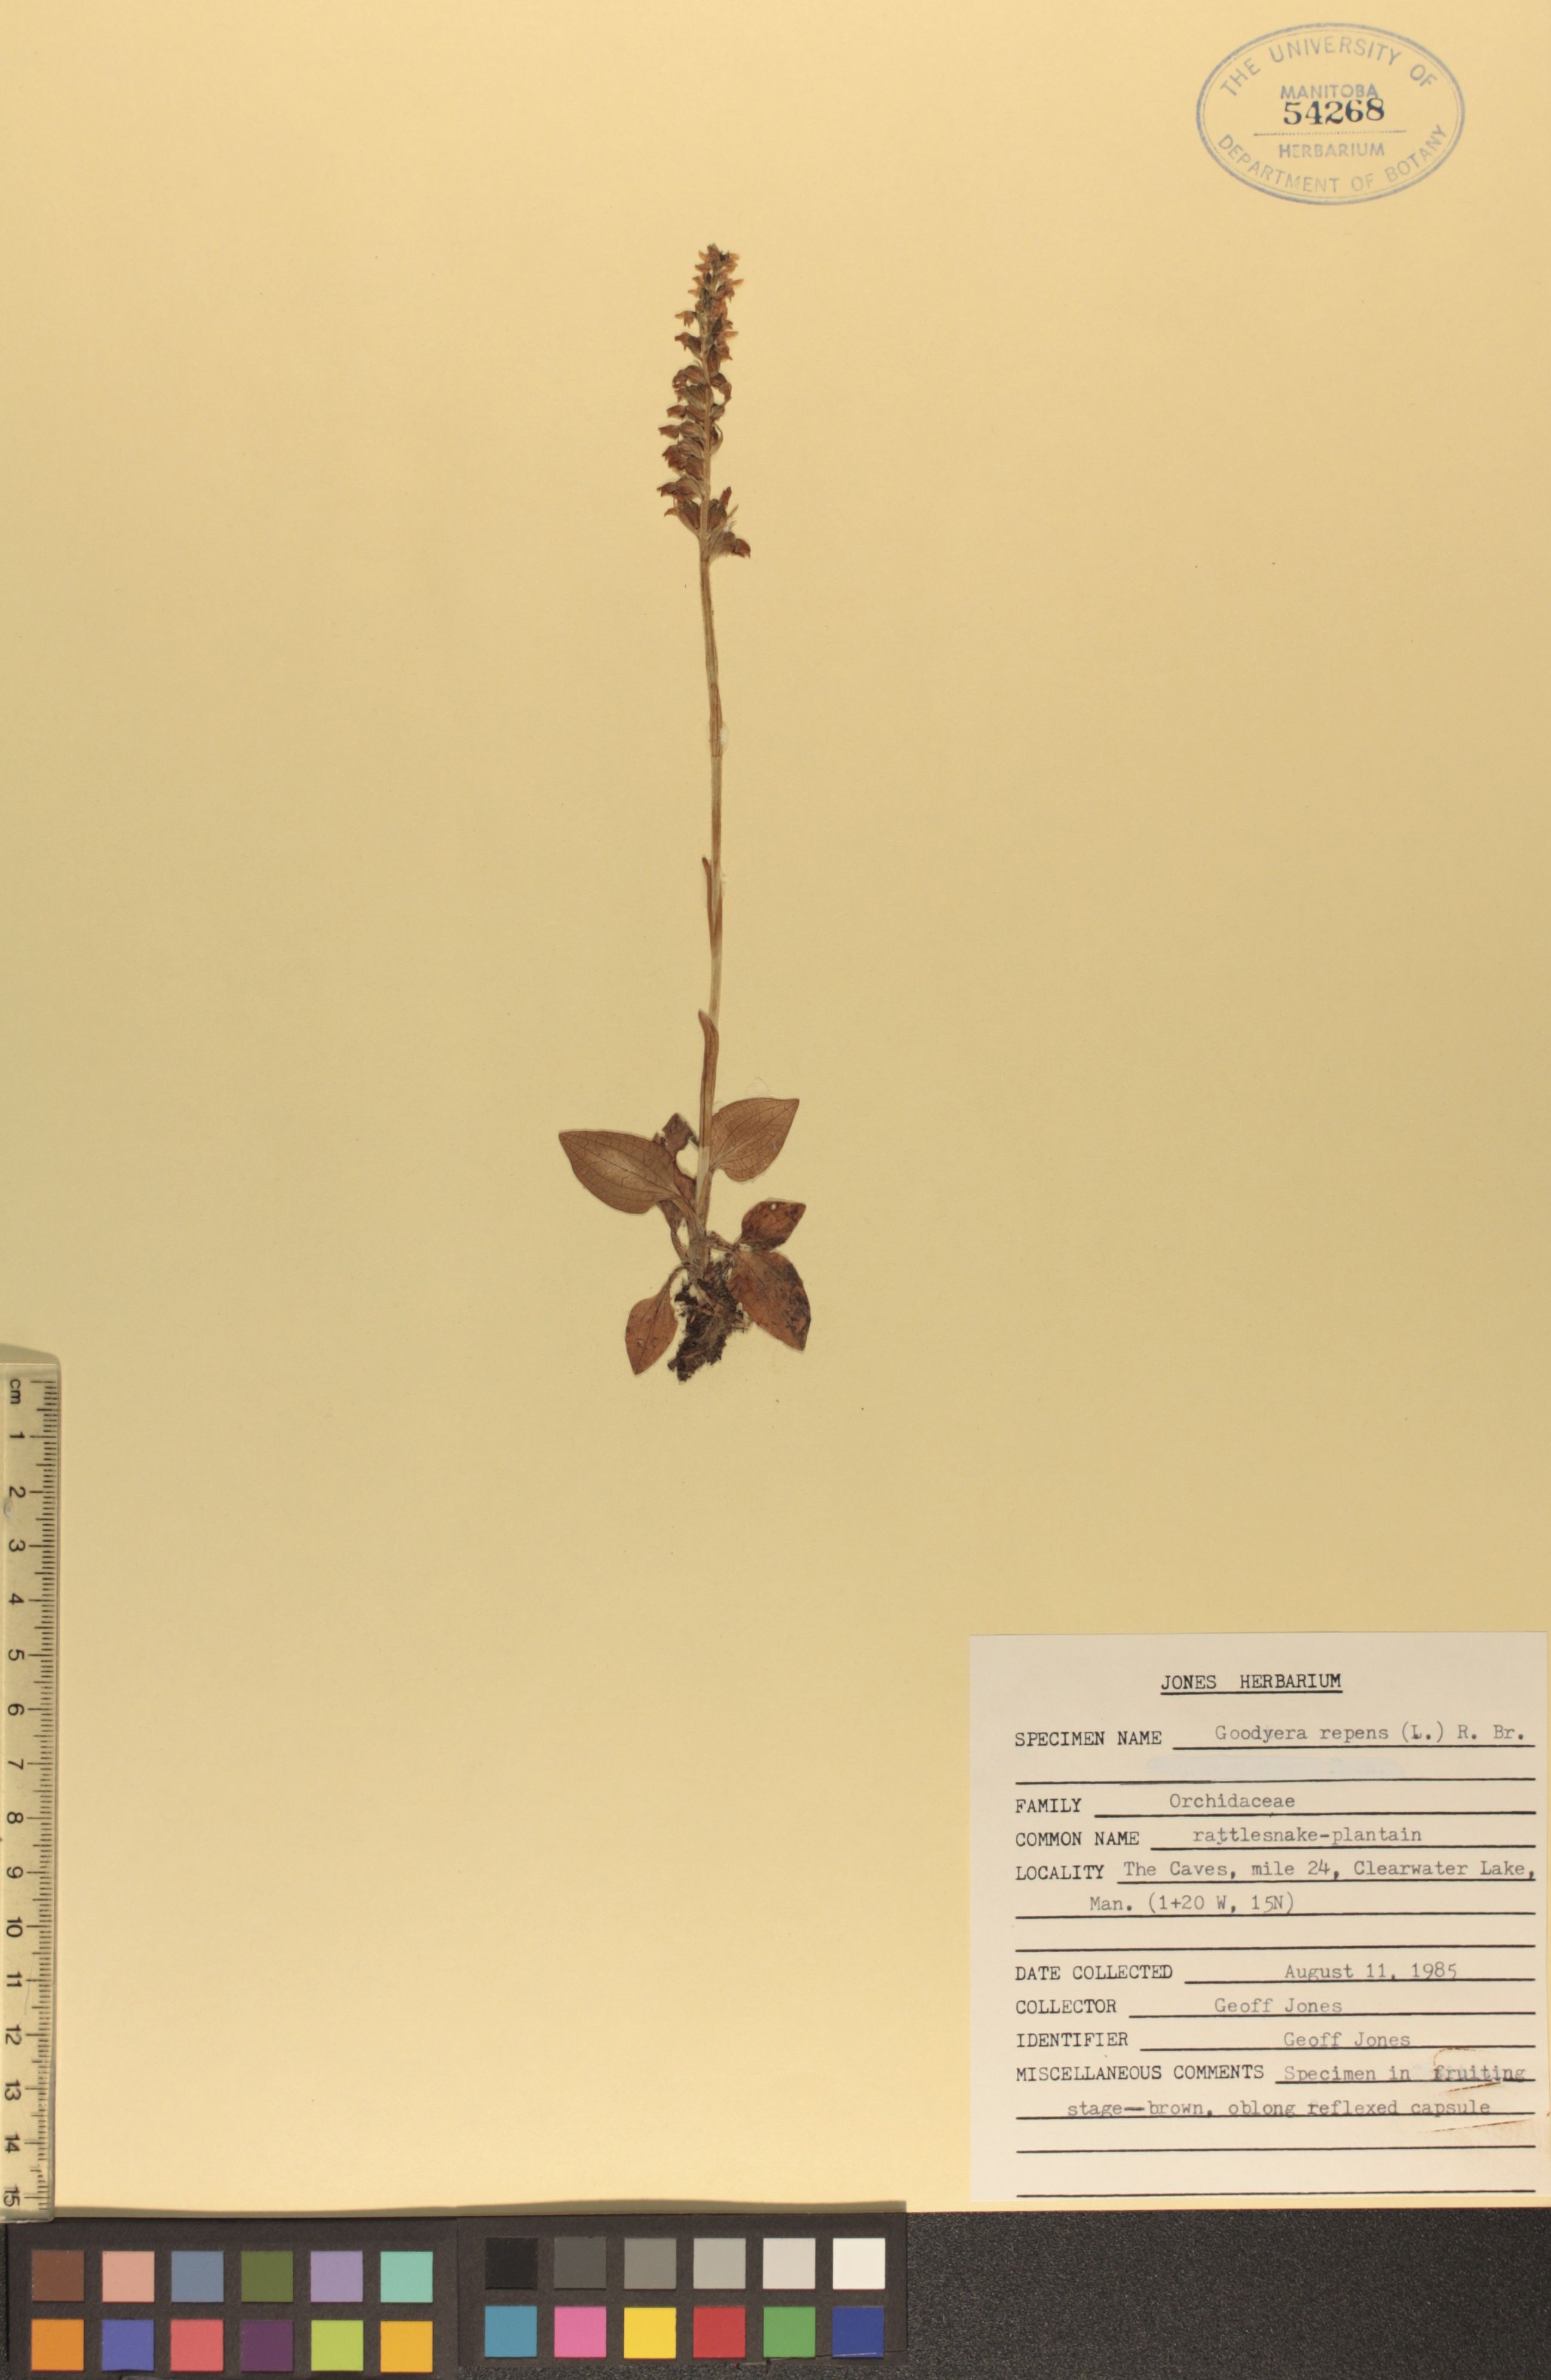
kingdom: Plantae
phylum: Tracheophyta
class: Liliopsida
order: Asparagales
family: Orchidaceae
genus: Goodyera
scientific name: Goodyera repens
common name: Creeping lady's-tresses
